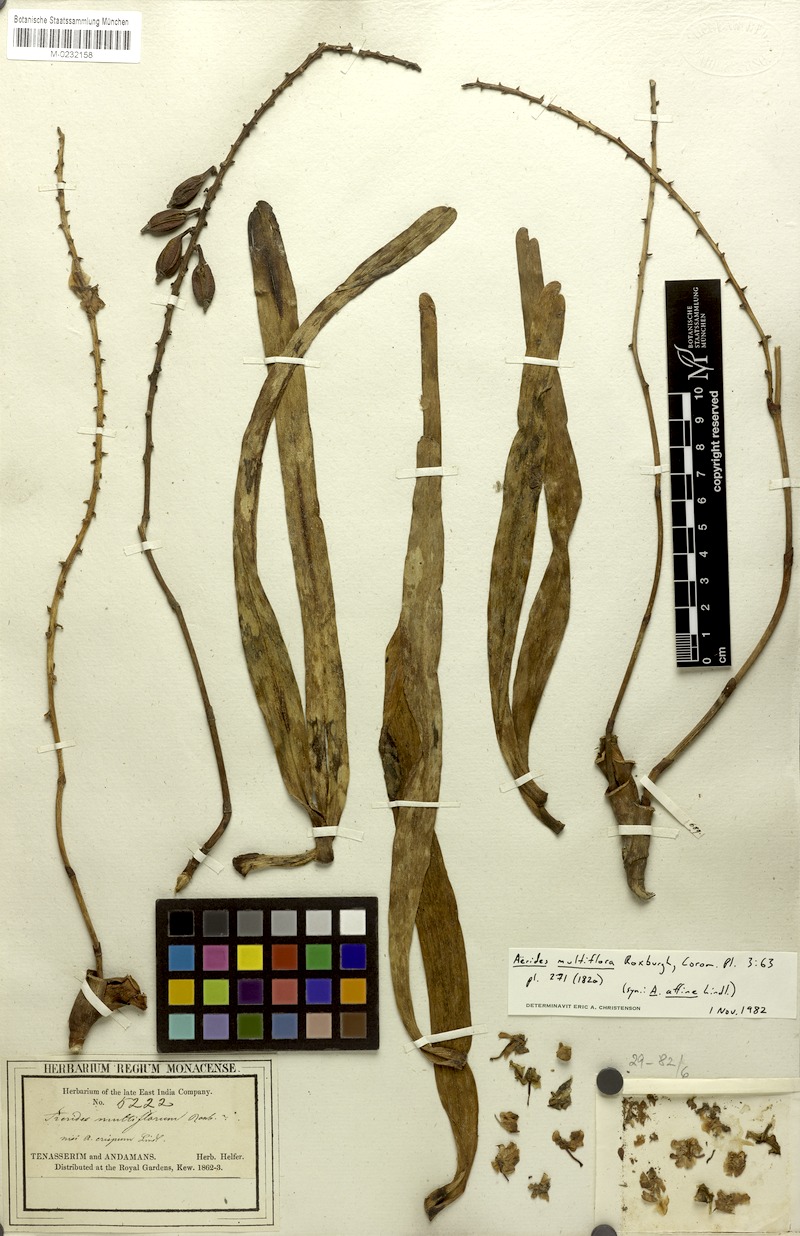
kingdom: Plantae
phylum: Tracheophyta
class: Liliopsida
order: Asparagales
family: Orchidaceae
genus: Aerides
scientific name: Aerides multiflora
